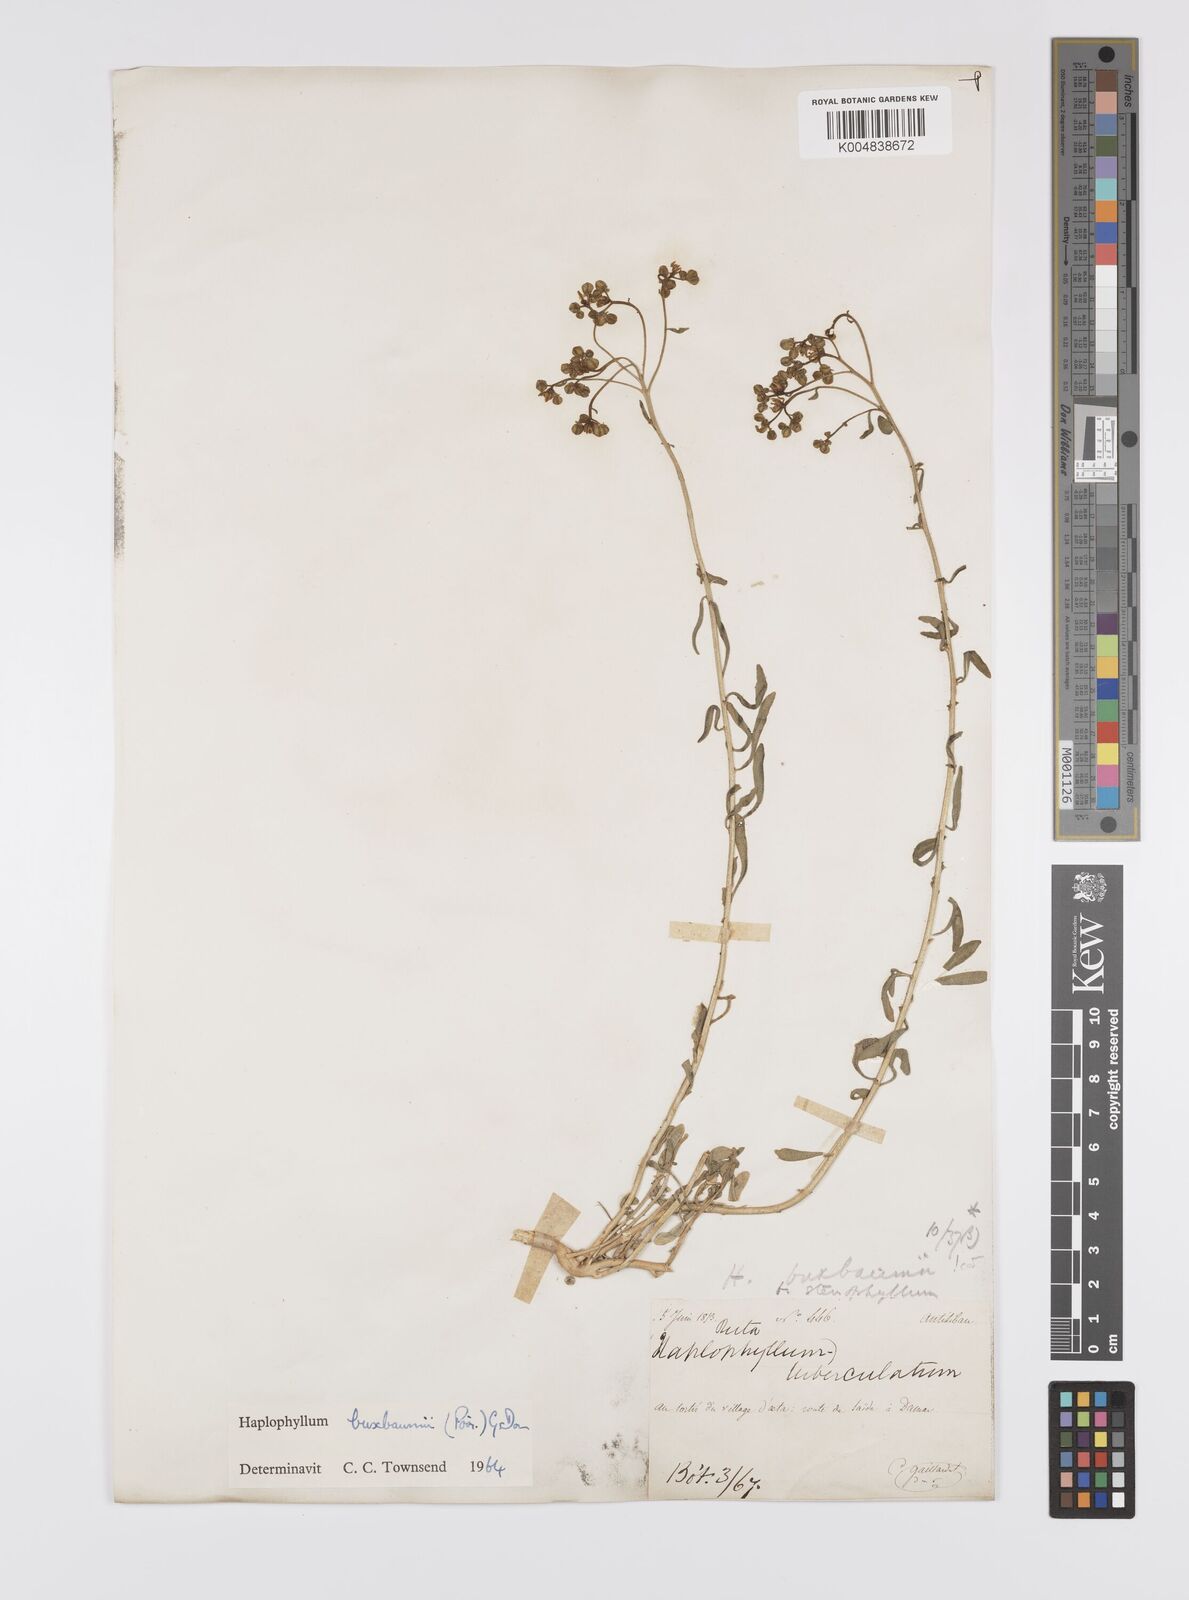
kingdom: Plantae
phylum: Tracheophyta
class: Magnoliopsida
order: Sapindales
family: Rutaceae
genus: Haplophyllum
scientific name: Haplophyllum
